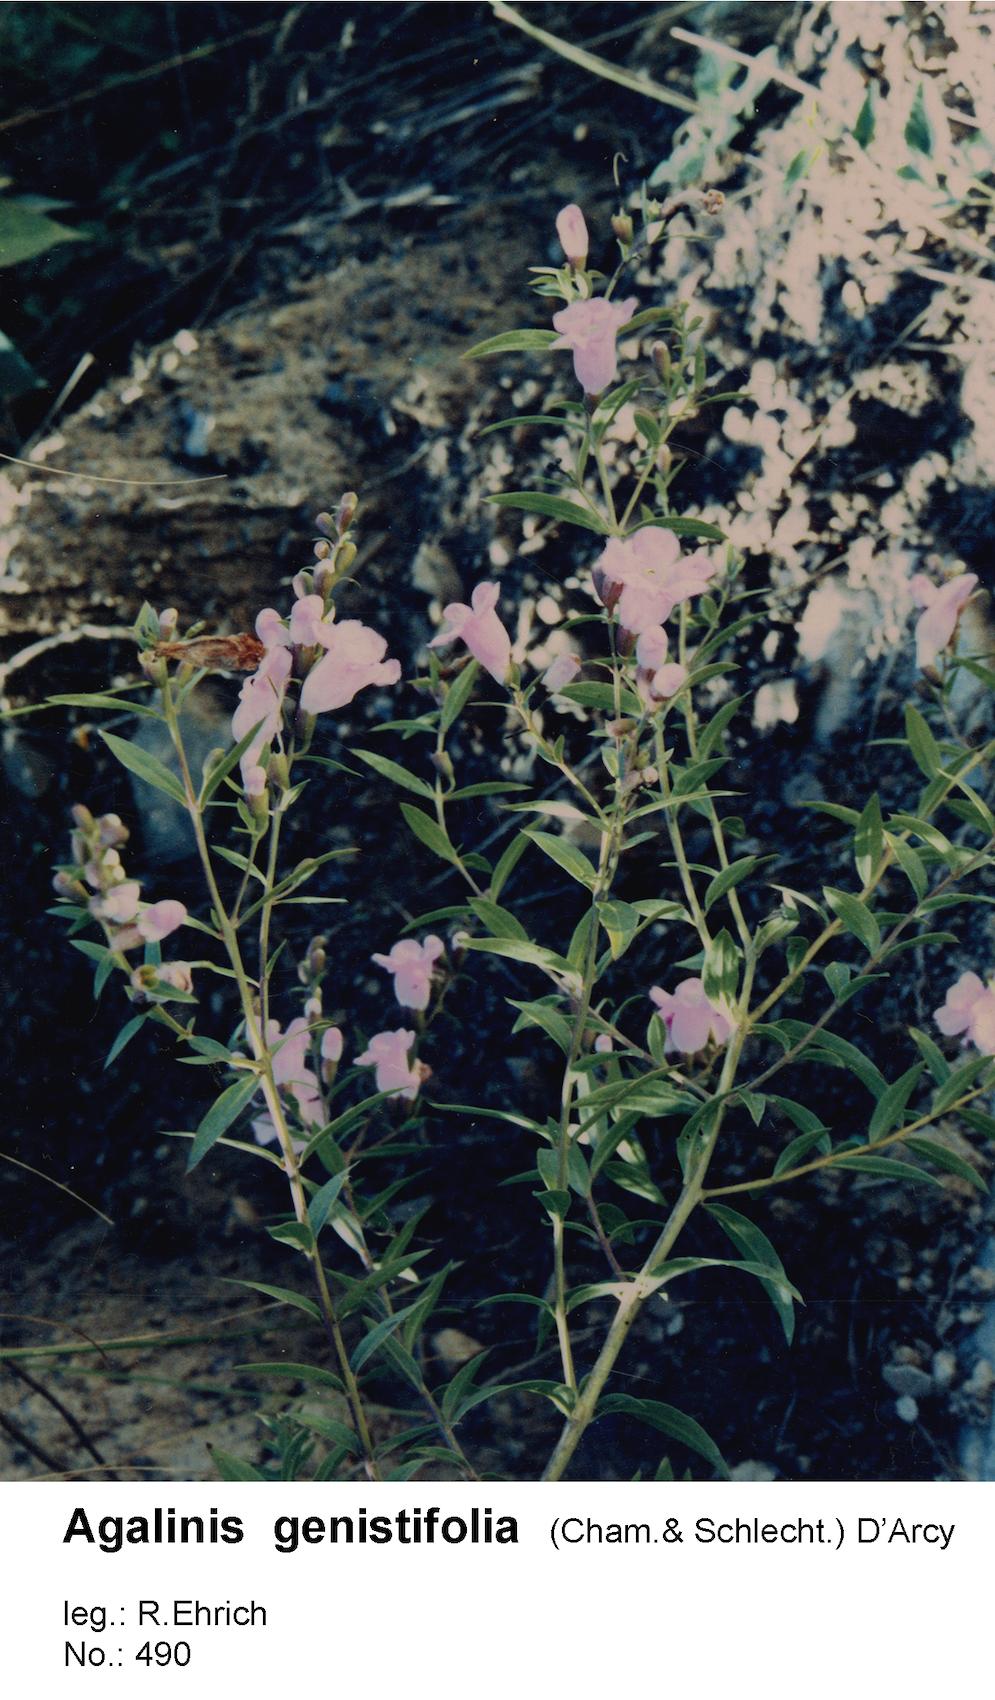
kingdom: Plantae
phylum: Tracheophyta
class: Magnoliopsida
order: Lamiales
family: Orobanchaceae
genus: Agalinis
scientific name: Agalinis genistifolia
